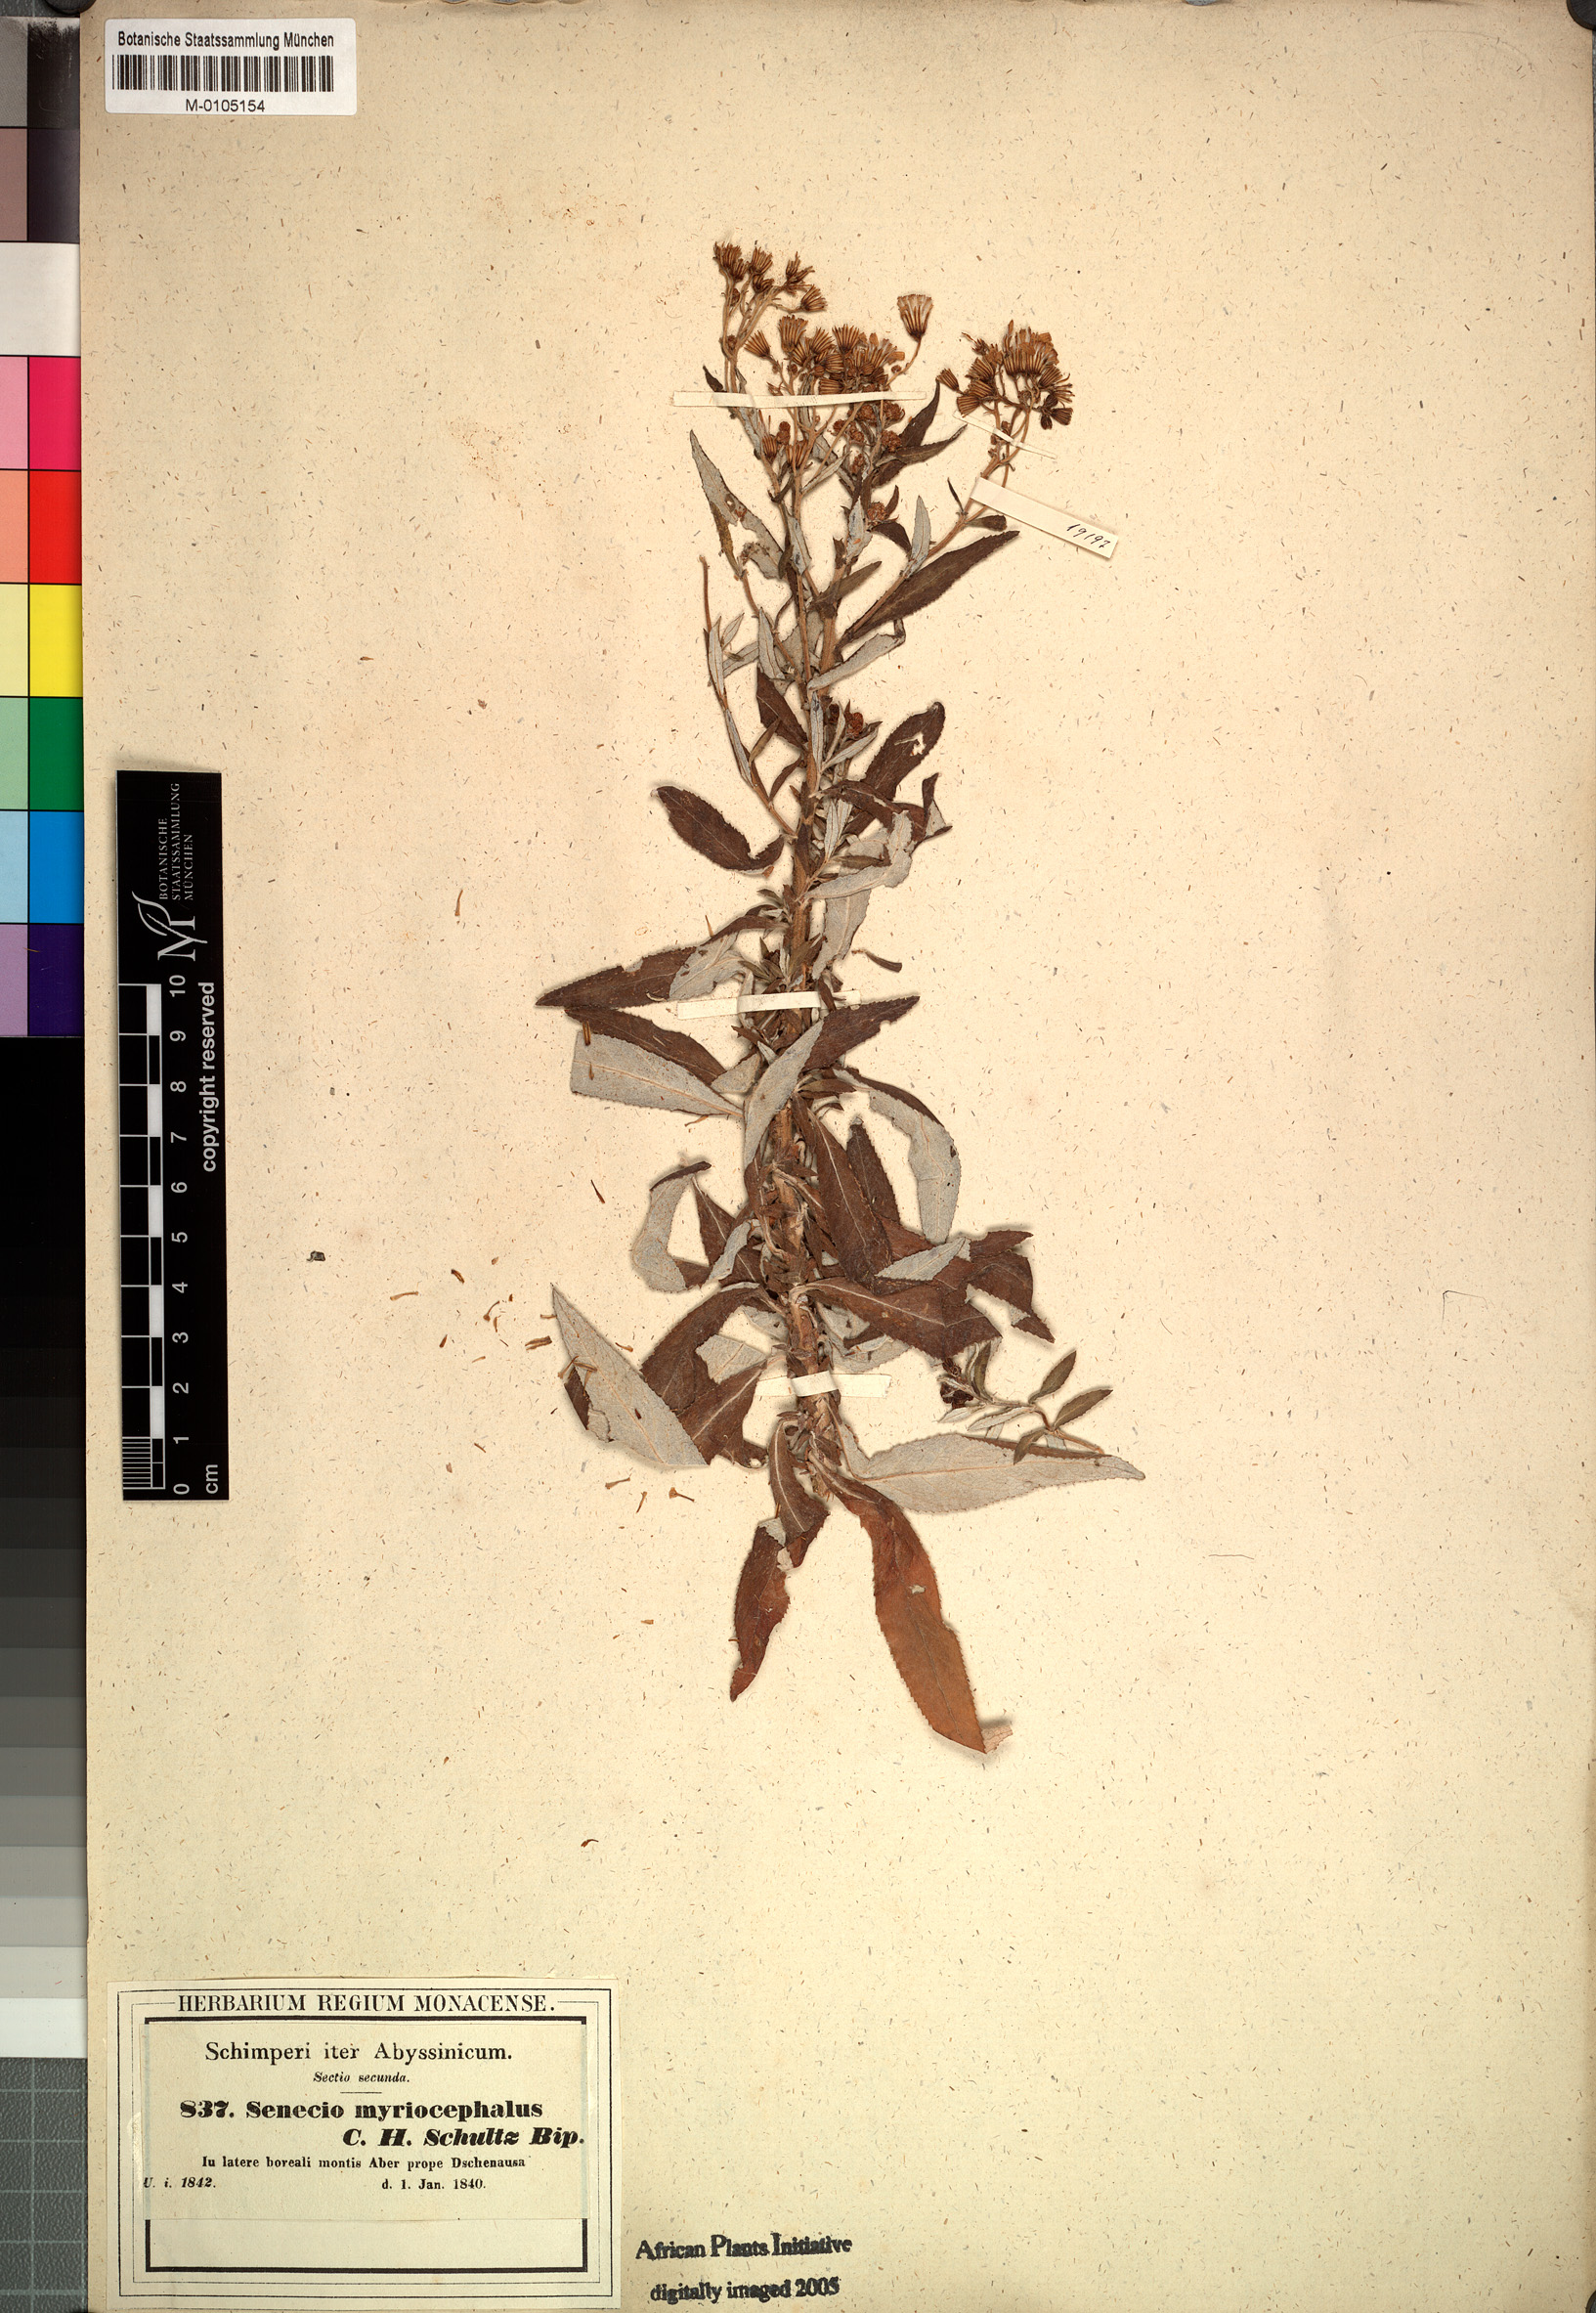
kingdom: Plantae
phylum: Tracheophyta
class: Magnoliopsida
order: Asterales
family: Asteraceae
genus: Senecio
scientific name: Senecio myriocephalus
